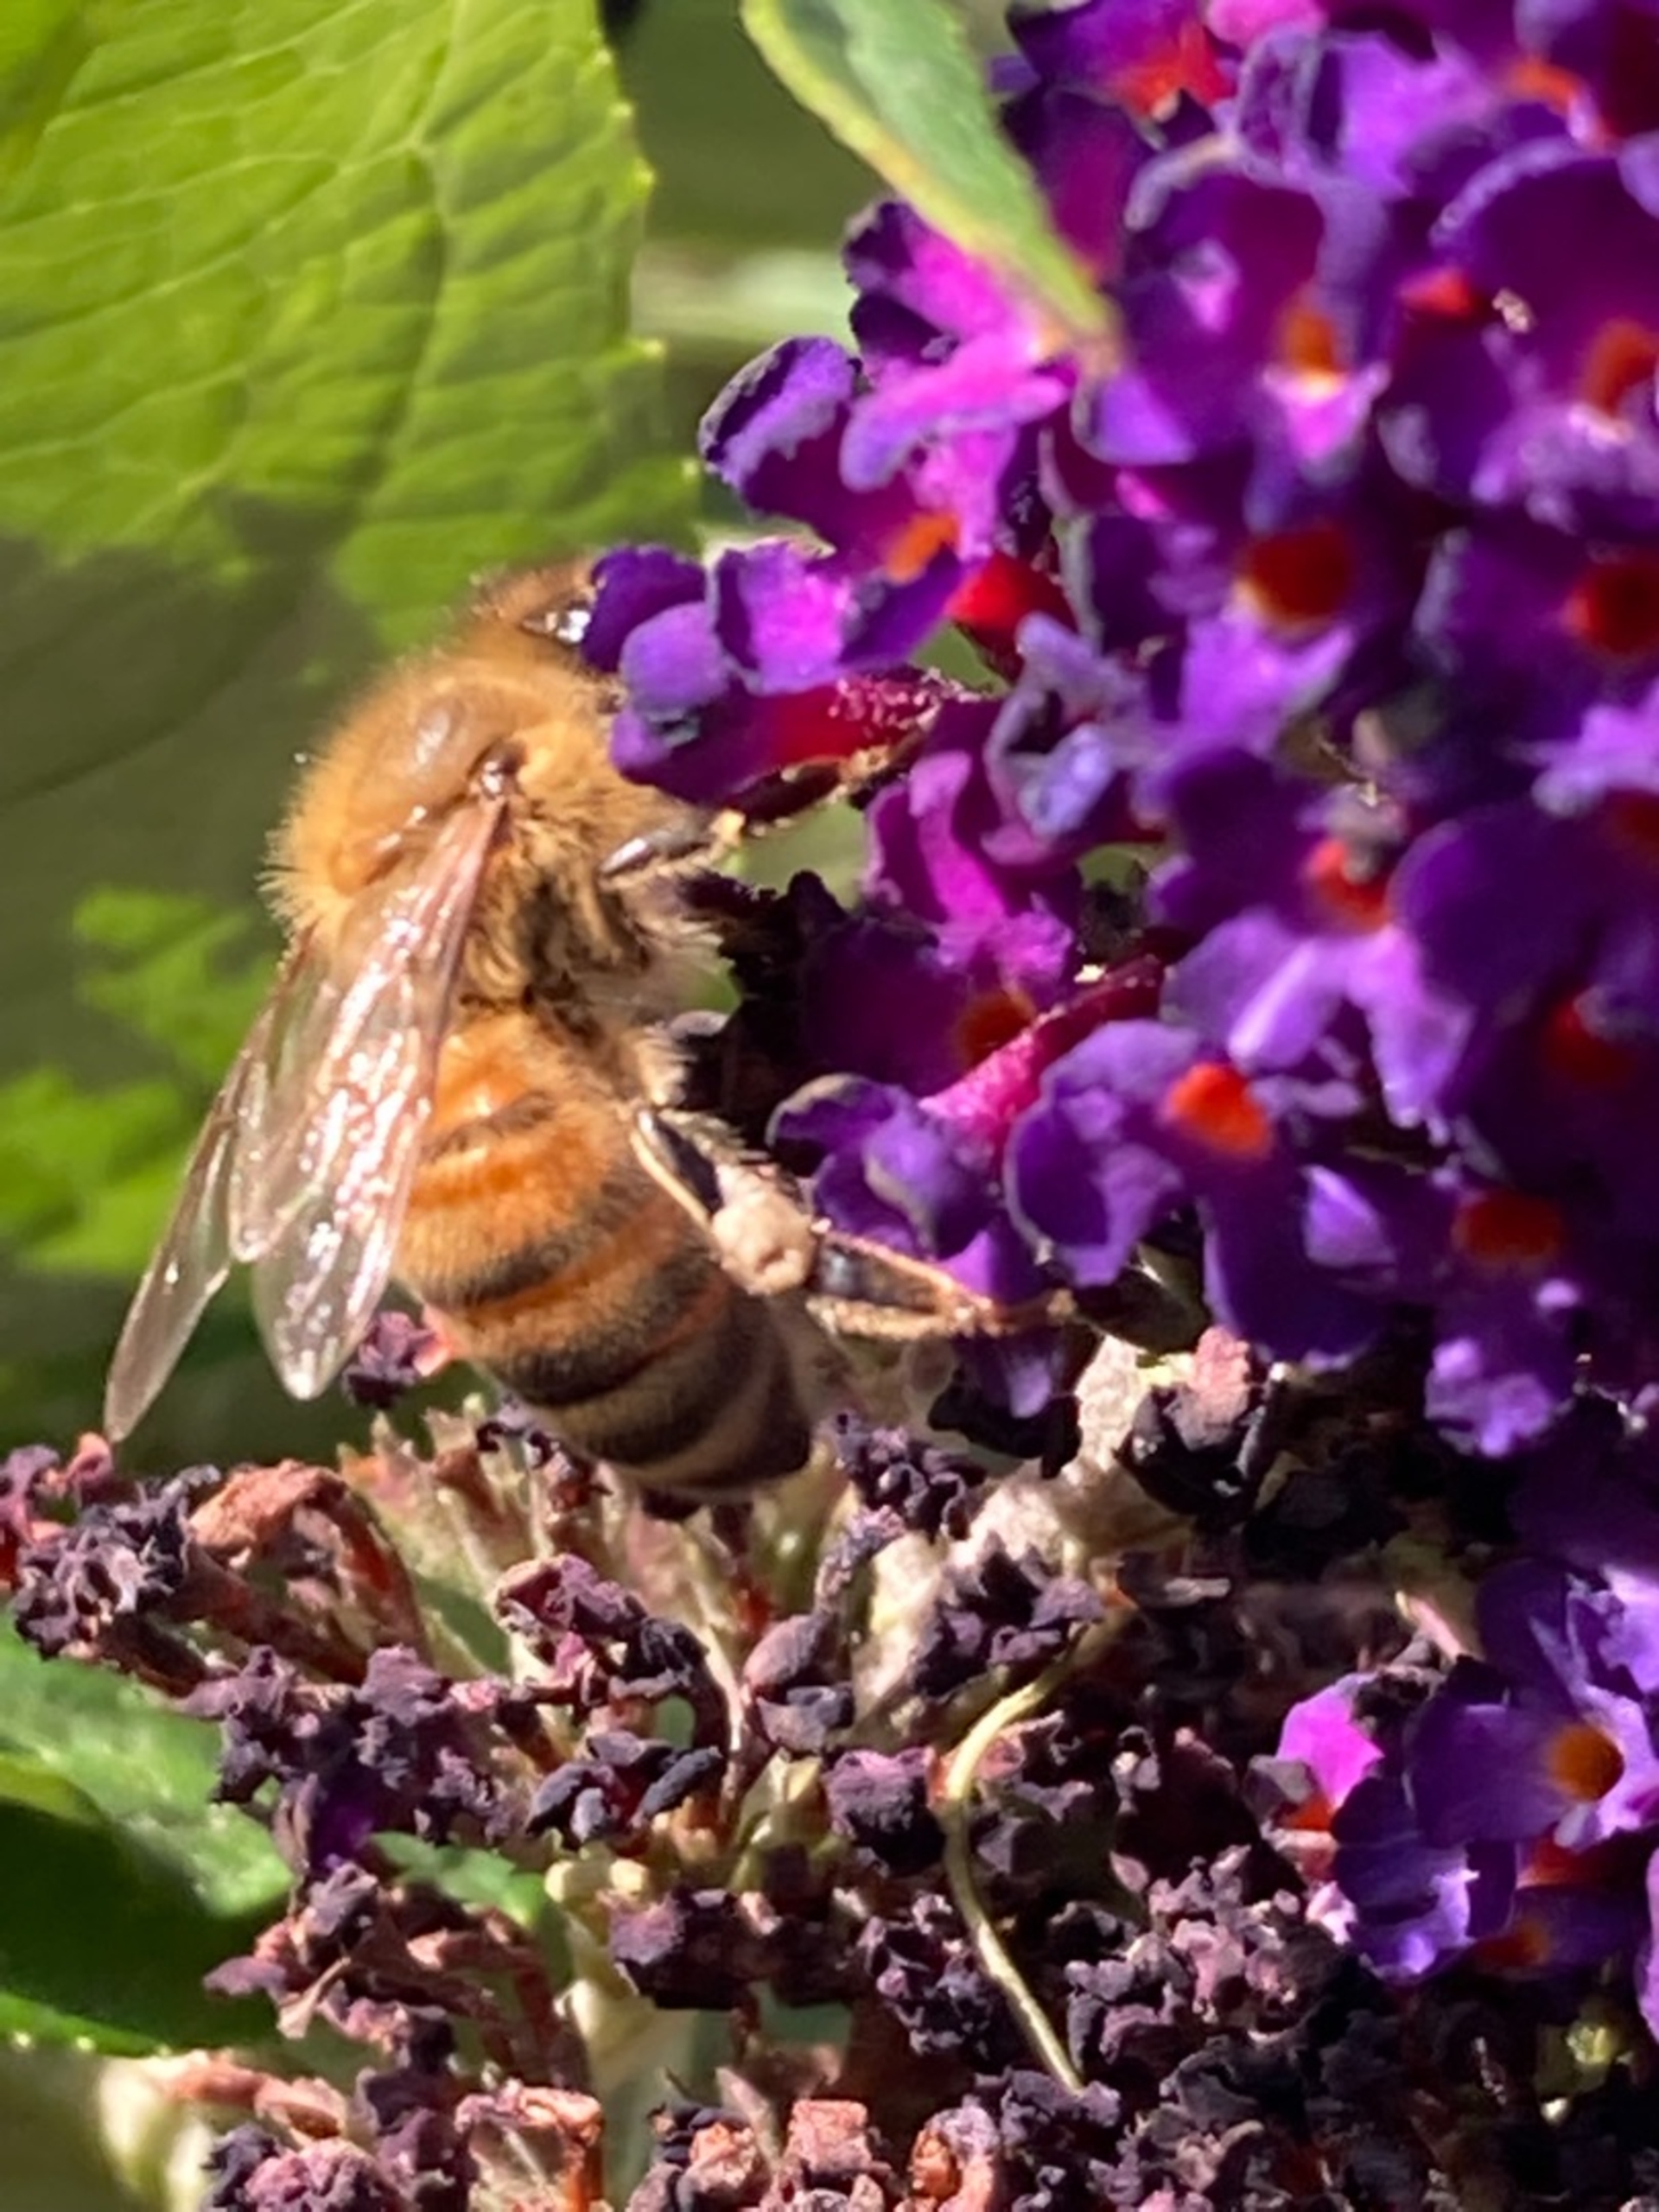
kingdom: Animalia
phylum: Arthropoda
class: Insecta
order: Hymenoptera
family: Apidae
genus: Apis
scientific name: Apis mellifera
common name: Honningbi
